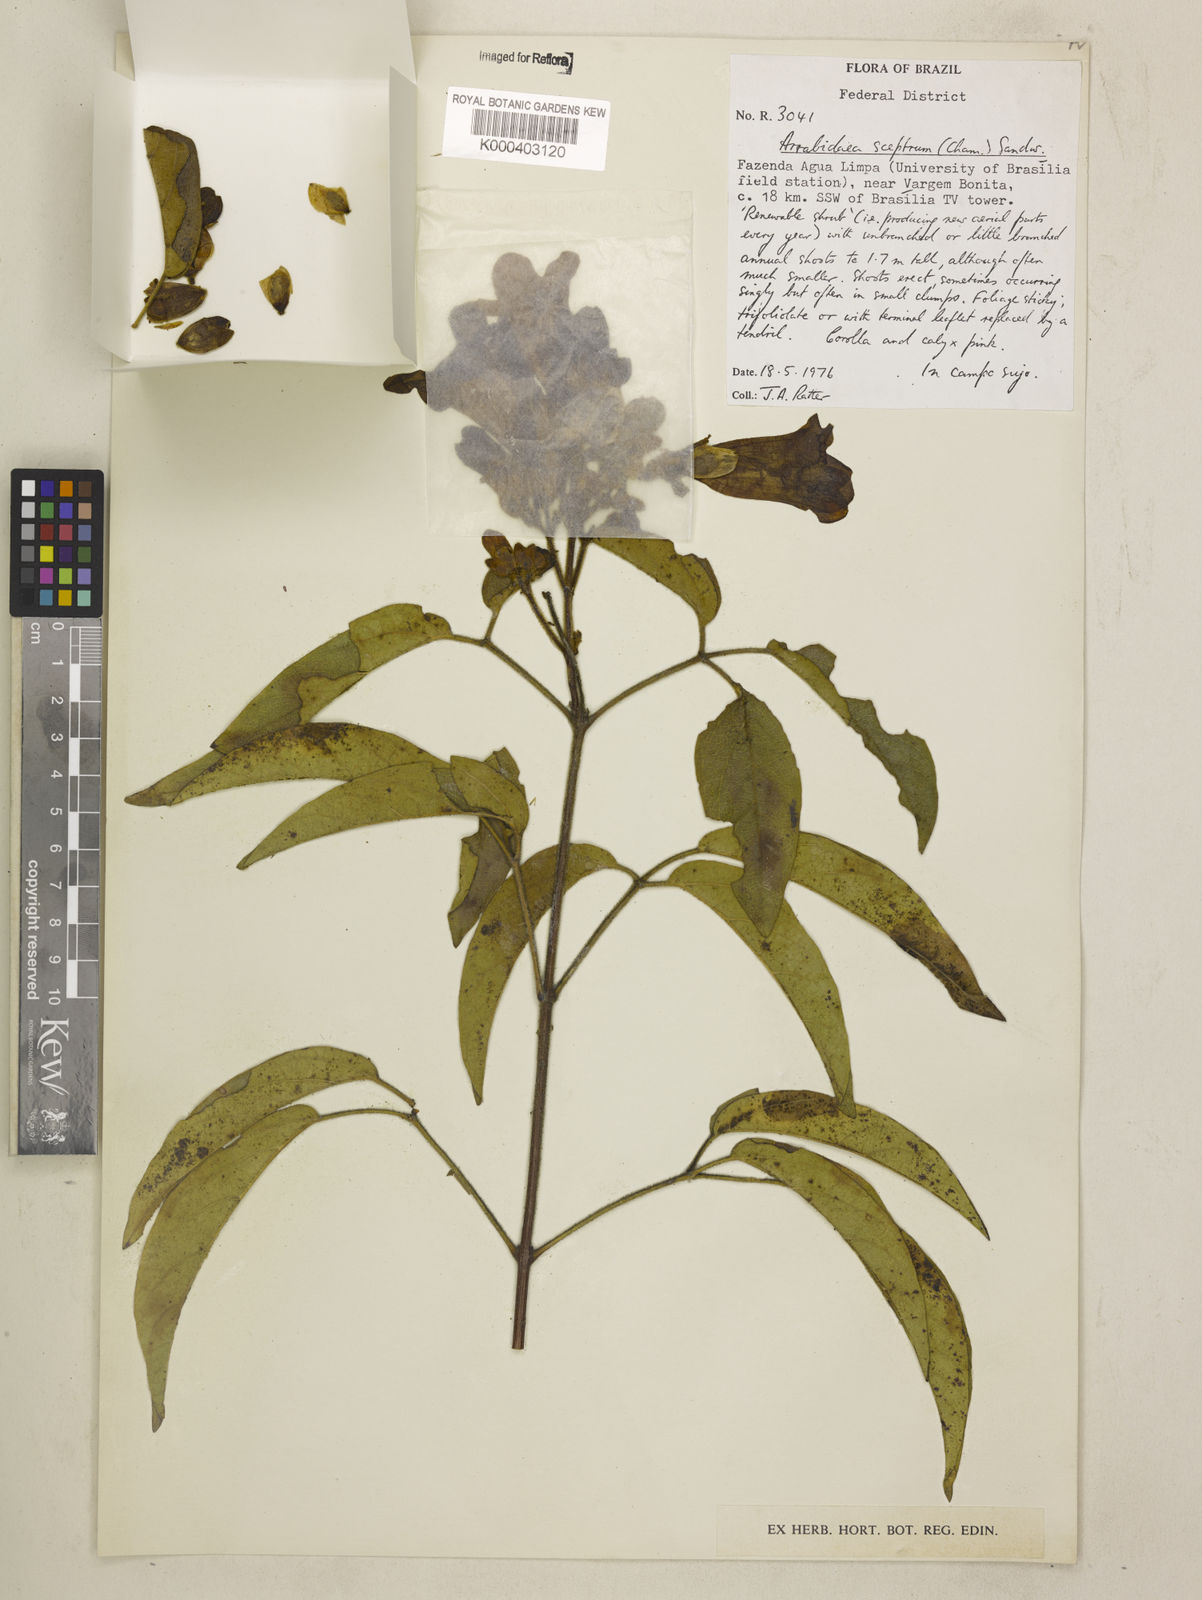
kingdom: Plantae
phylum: Tracheophyta
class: Magnoliopsida
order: Lamiales
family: Bignoniaceae
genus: Cuspidaria
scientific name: Cuspidaria sceptrum
